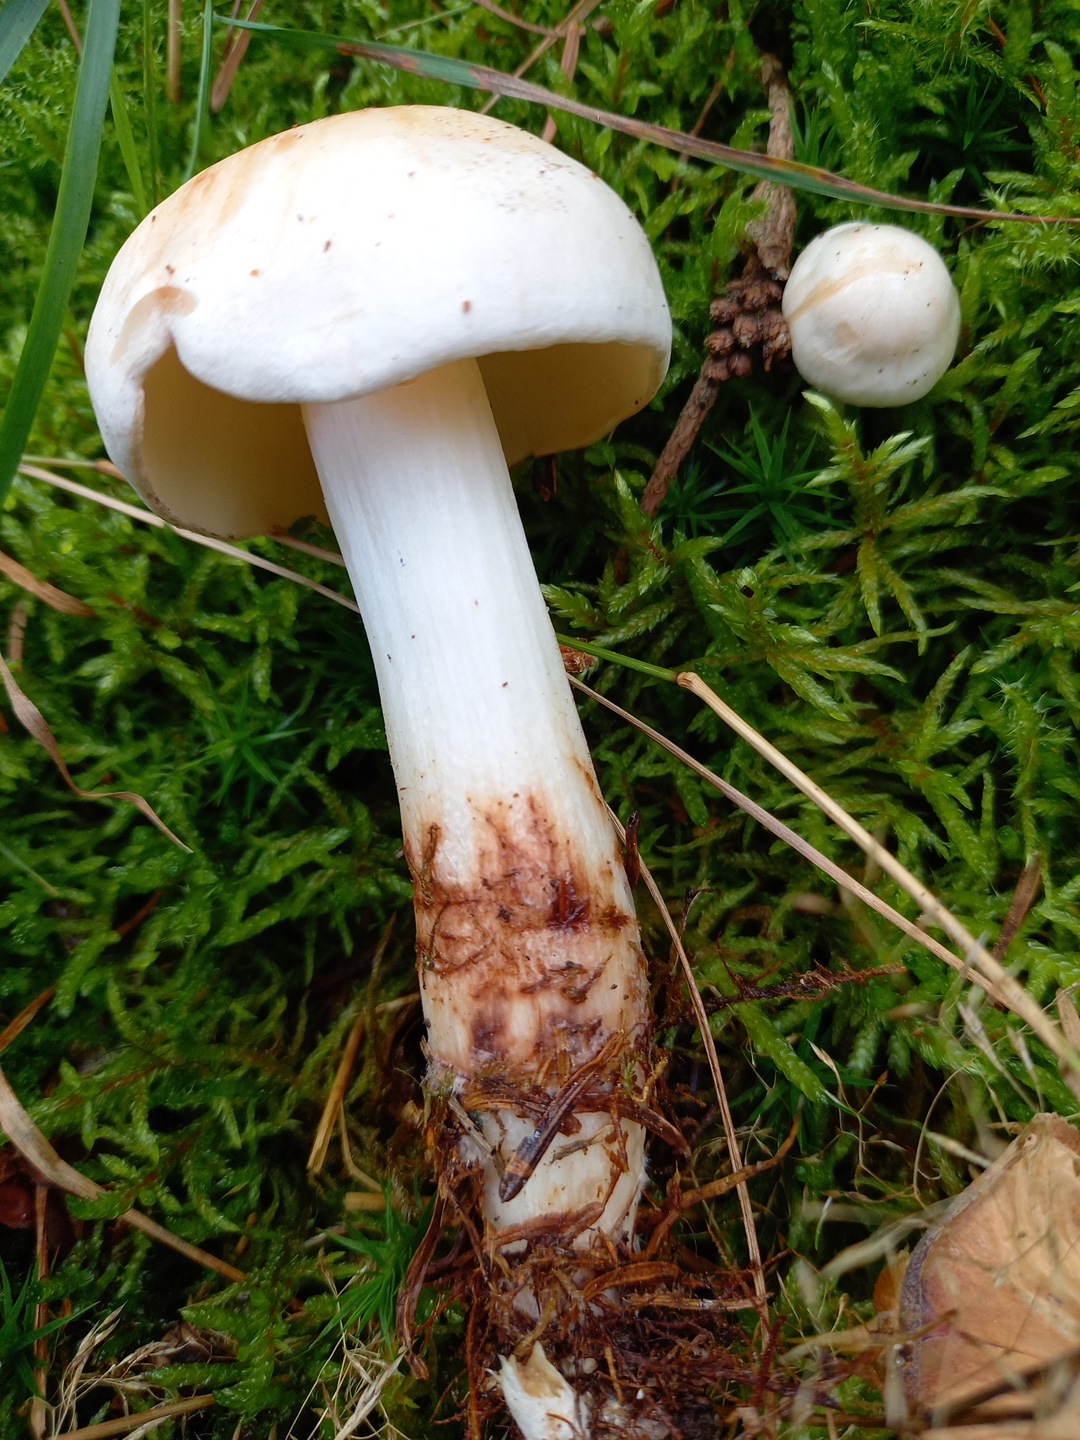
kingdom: Fungi
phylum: Basidiomycota
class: Agaricomycetes
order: Agaricales
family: Omphalotaceae
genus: Rhodocollybia
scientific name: Rhodocollybia maculata
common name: plettet fladhat
